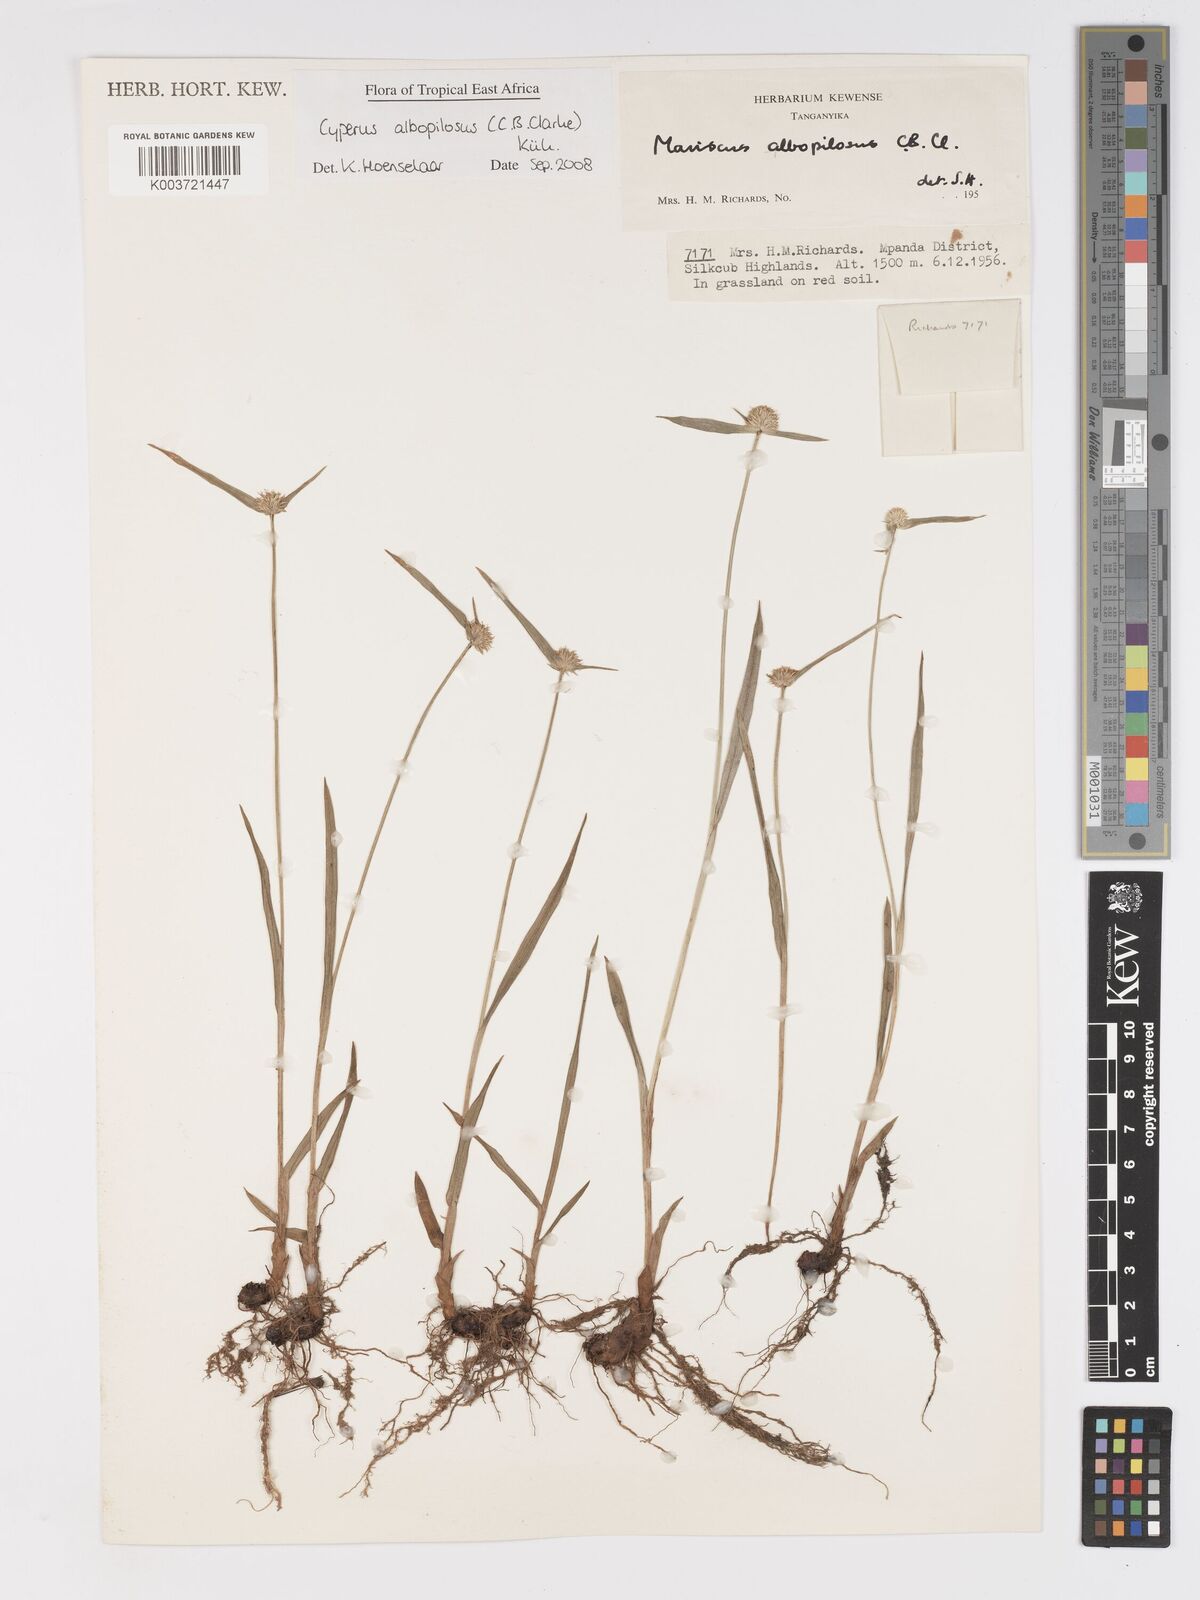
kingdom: Plantae
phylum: Tracheophyta
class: Liliopsida
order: Poales
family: Cyperaceae
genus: Cyperus
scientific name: Cyperus albopilosus
